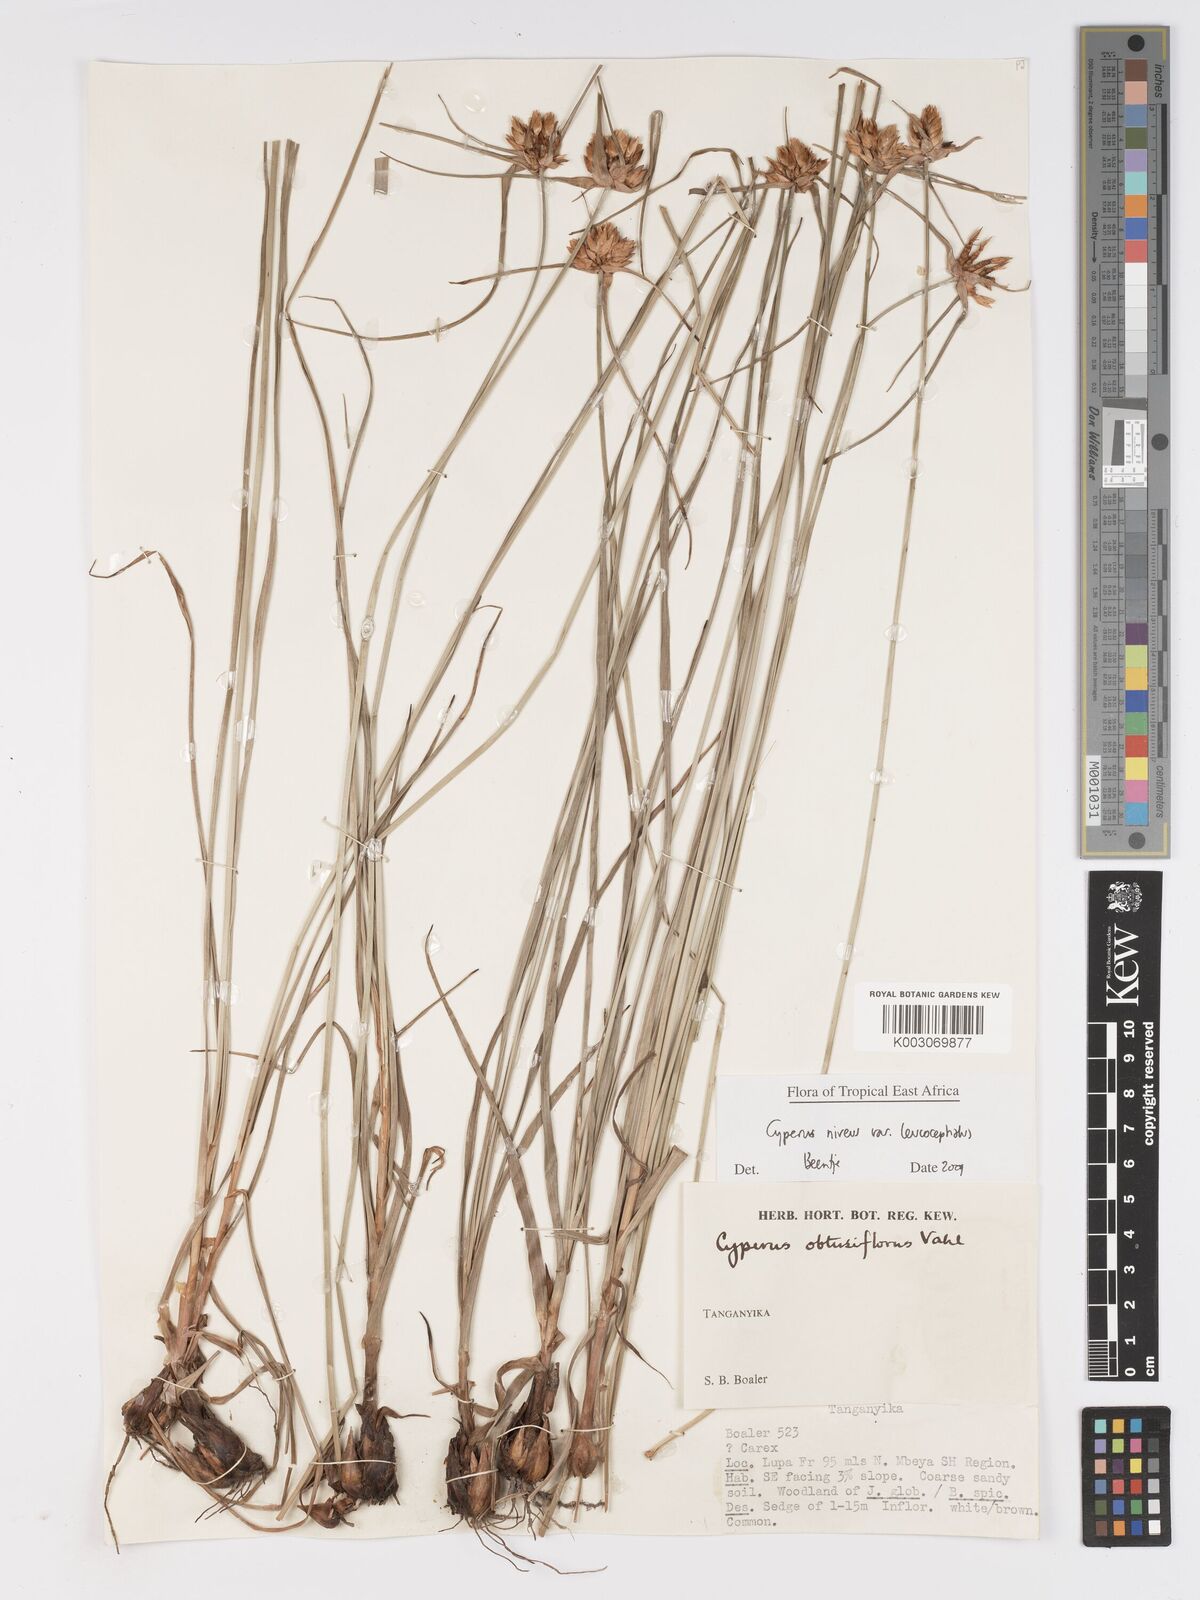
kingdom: Plantae
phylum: Tracheophyta
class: Liliopsida
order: Poales
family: Cyperaceae
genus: Cyperus
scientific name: Cyperus niveus
